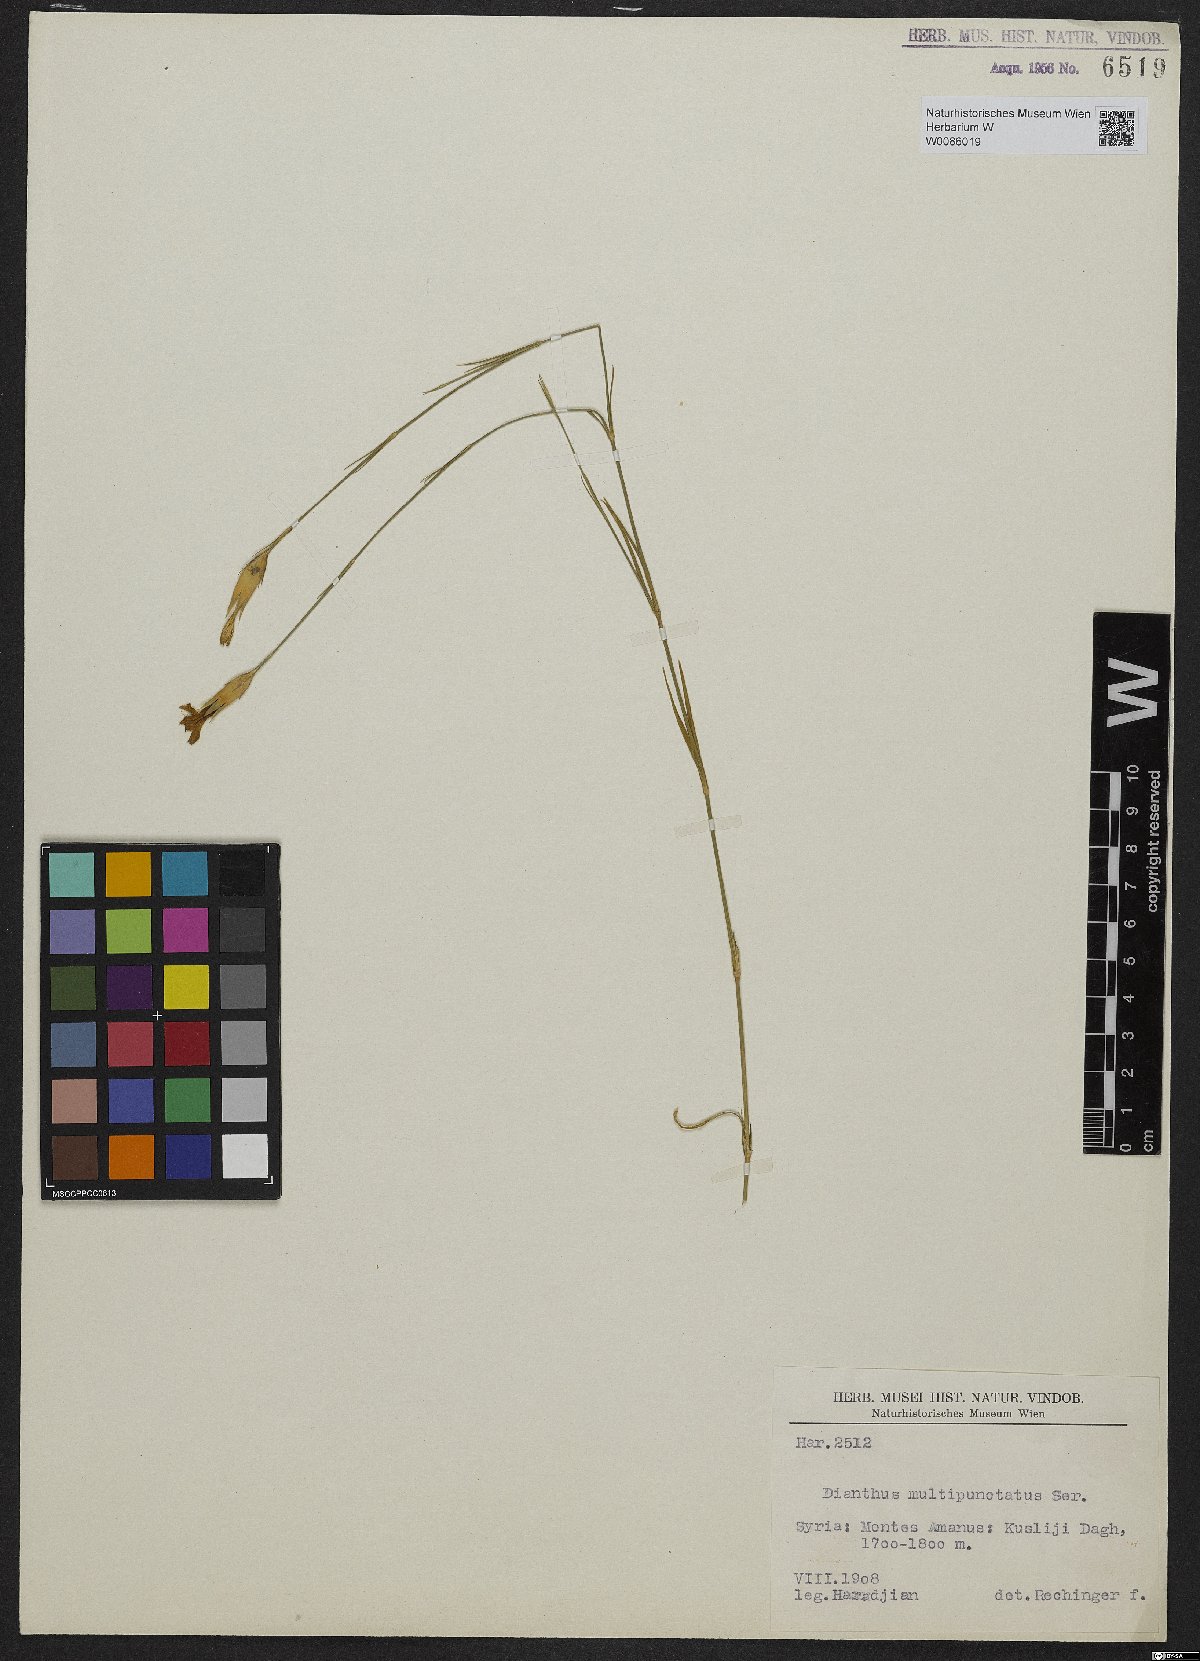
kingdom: Plantae
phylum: Tracheophyta
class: Magnoliopsida
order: Caryophyllales
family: Caryophyllaceae
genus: Dianthus
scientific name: Dianthus strictus
